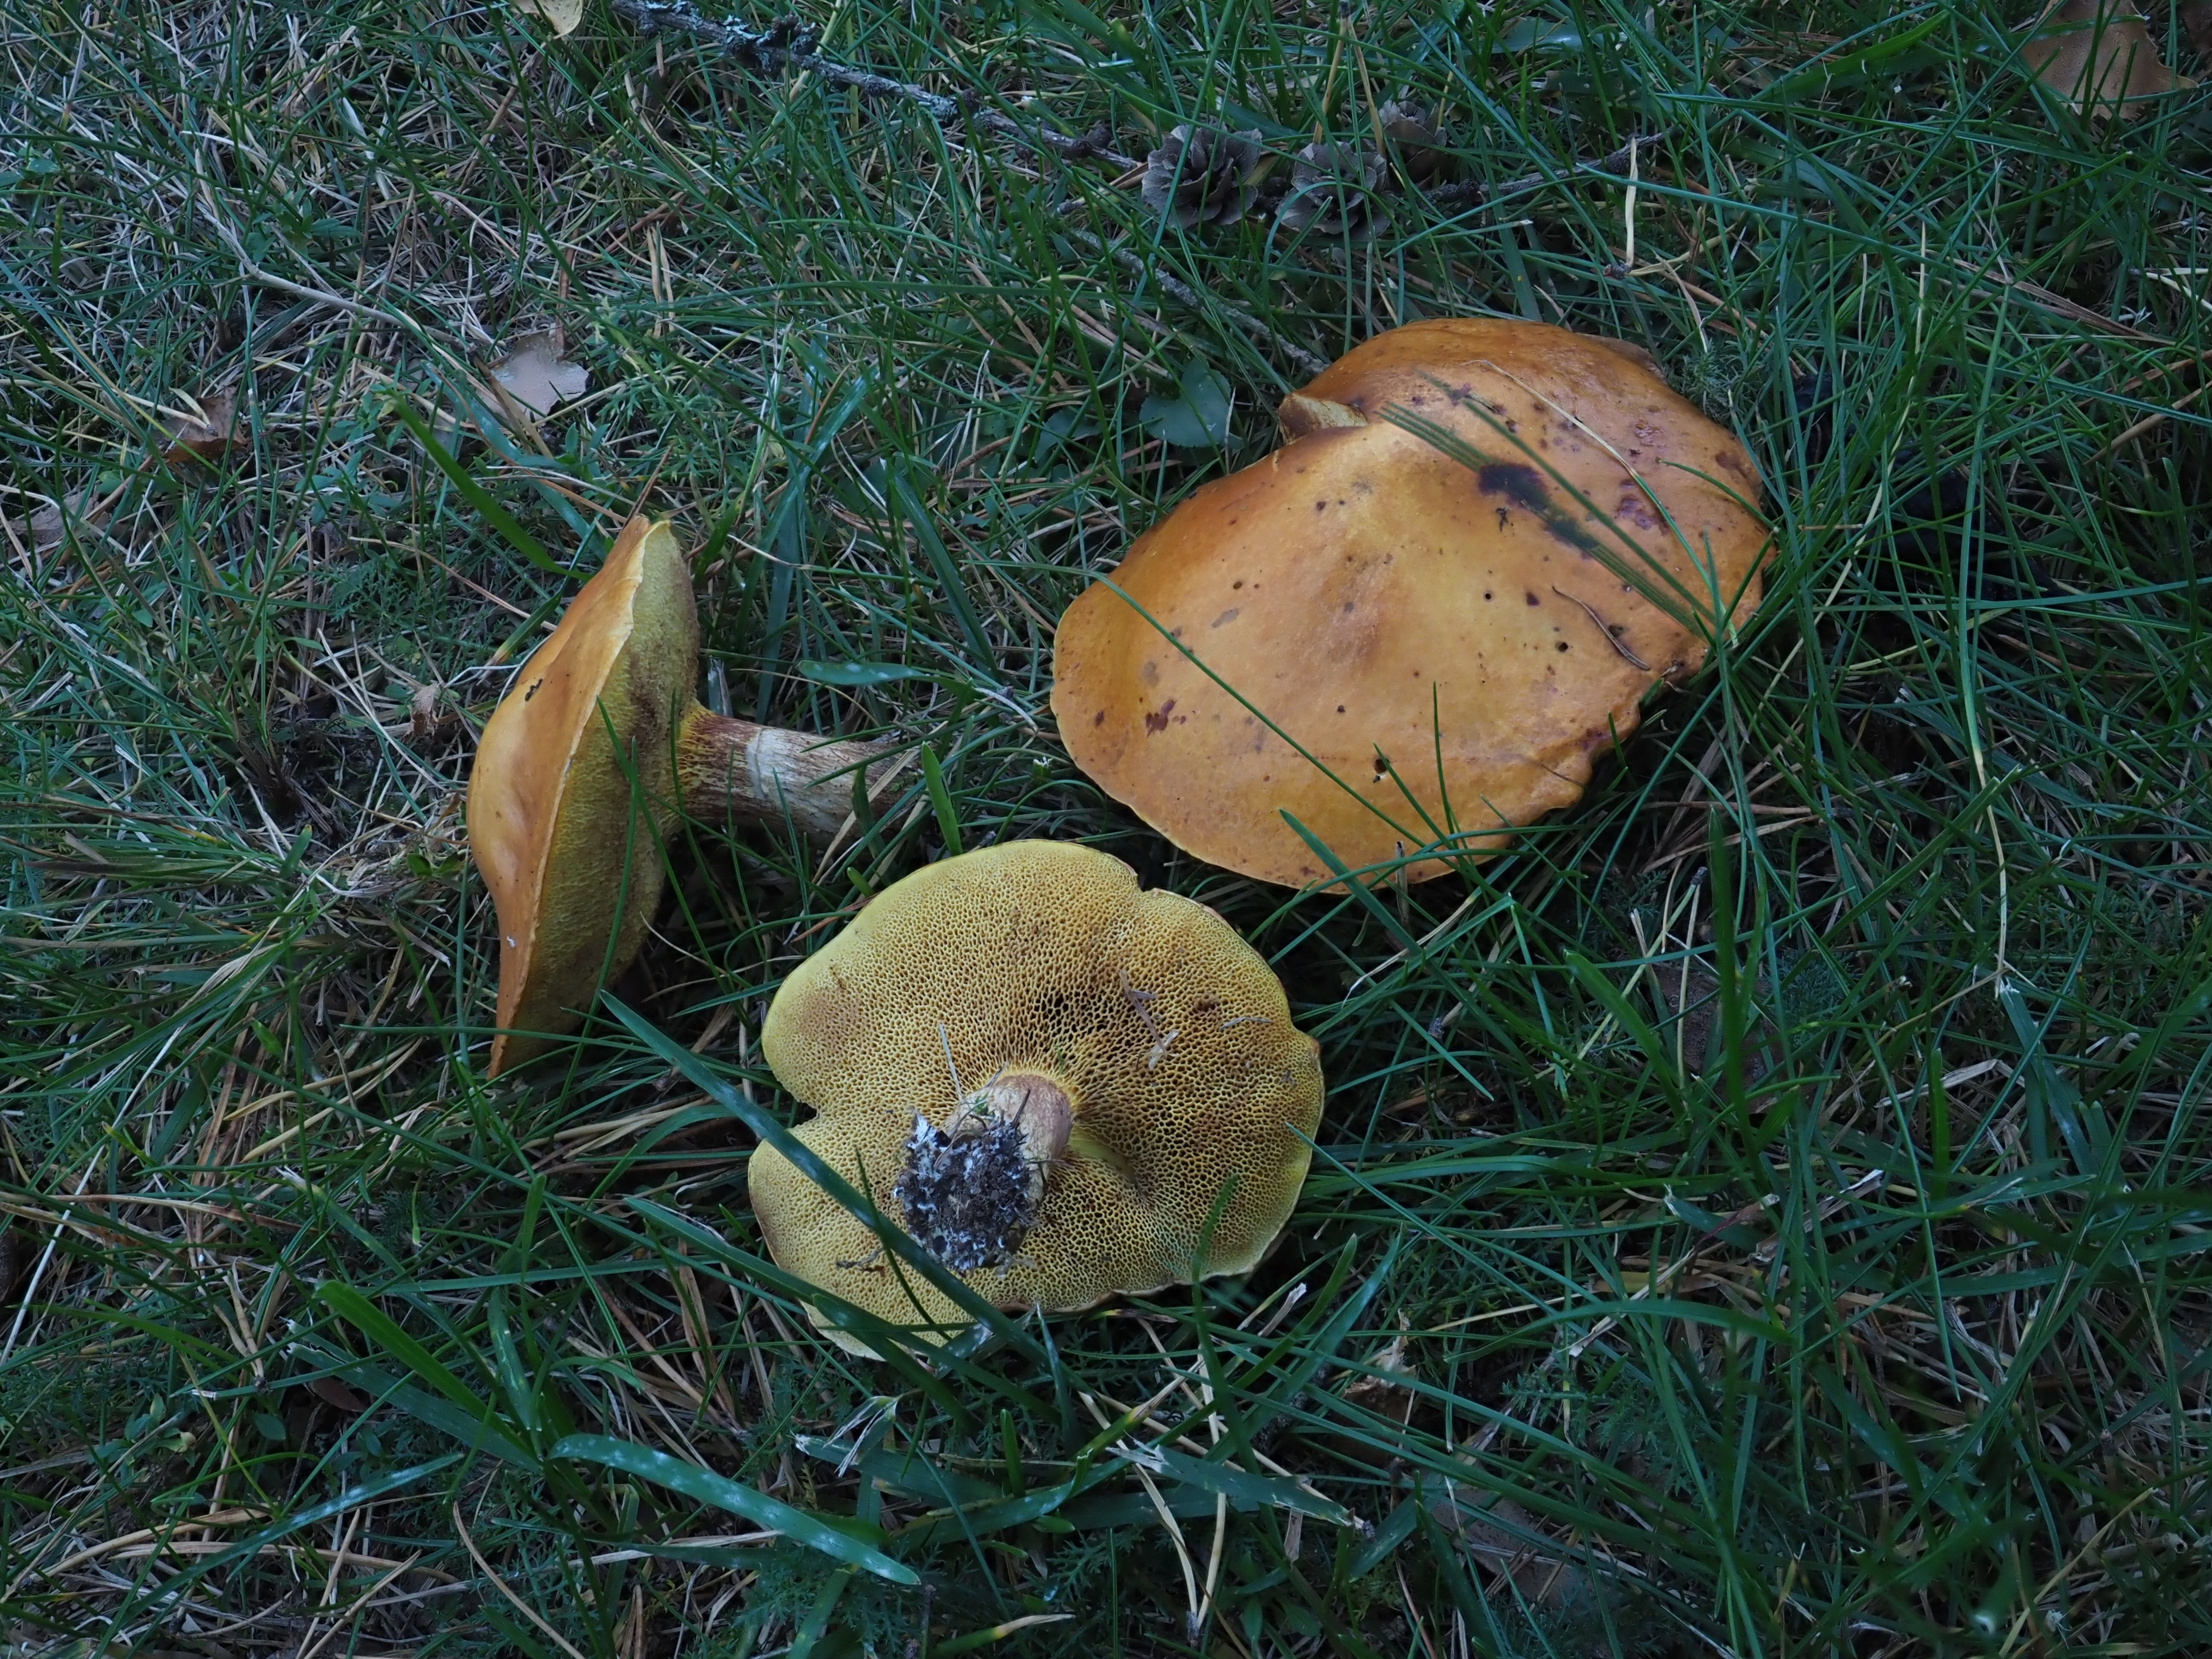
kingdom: Fungi
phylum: Basidiomycota
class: Agaricomycetes
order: Boletales
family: Suillaceae
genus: Suillus
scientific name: Suillus bovinus
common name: Bovine bolete
